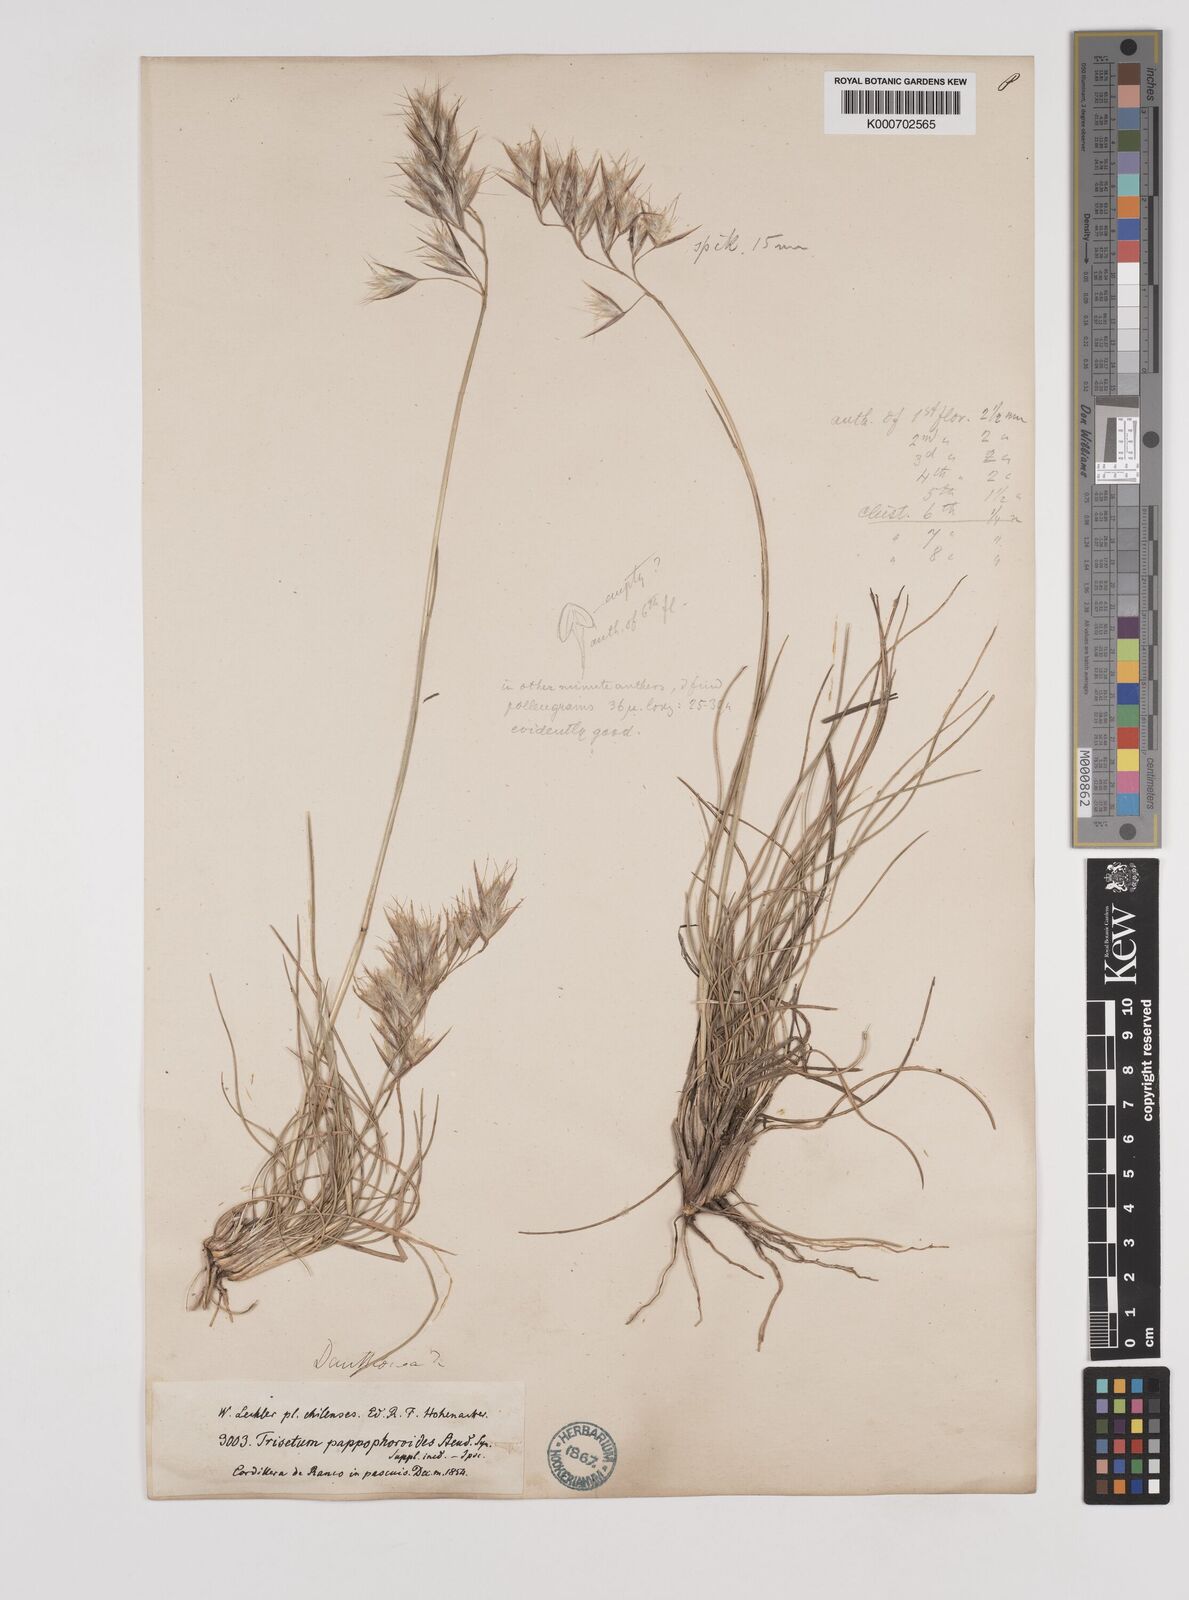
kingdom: Plantae
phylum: Tracheophyta
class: Liliopsida
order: Poales
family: Poaceae
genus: Danthonia
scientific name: Danthonia malacantha
